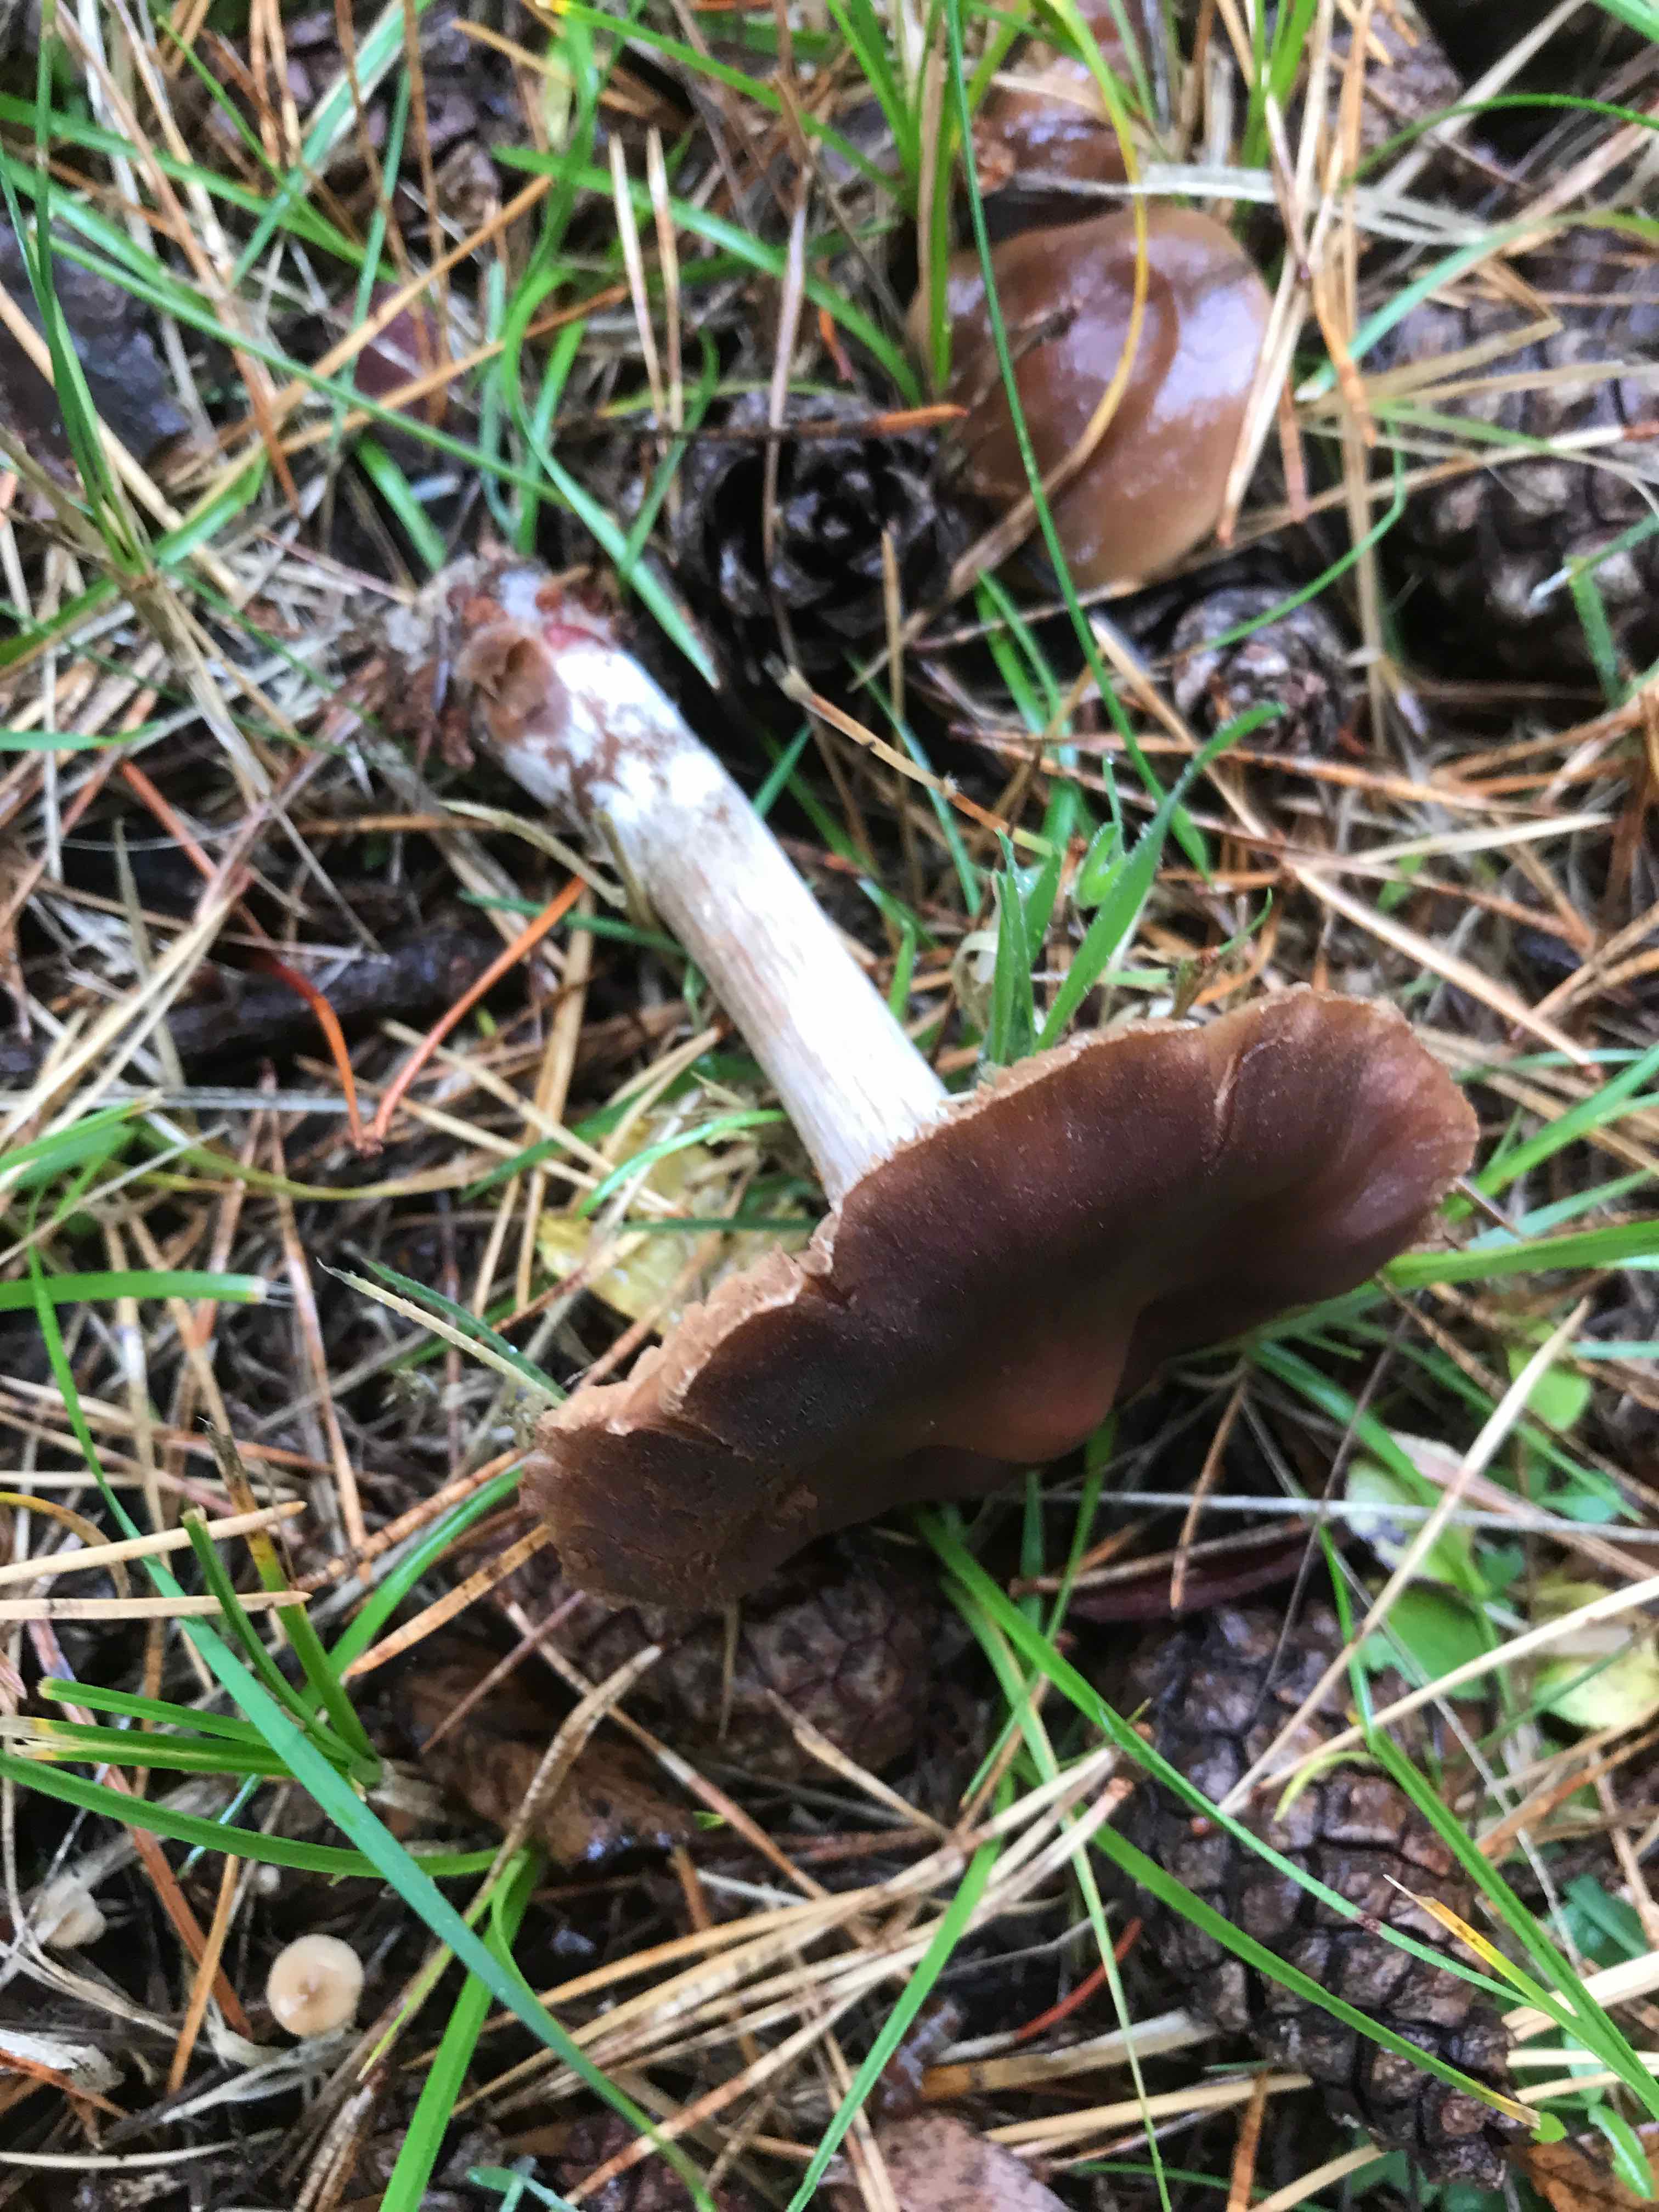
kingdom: Fungi
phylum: Basidiomycota
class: Agaricomycetes
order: Agaricales
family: Cortinariaceae
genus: Cortinarius
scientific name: Cortinarius
